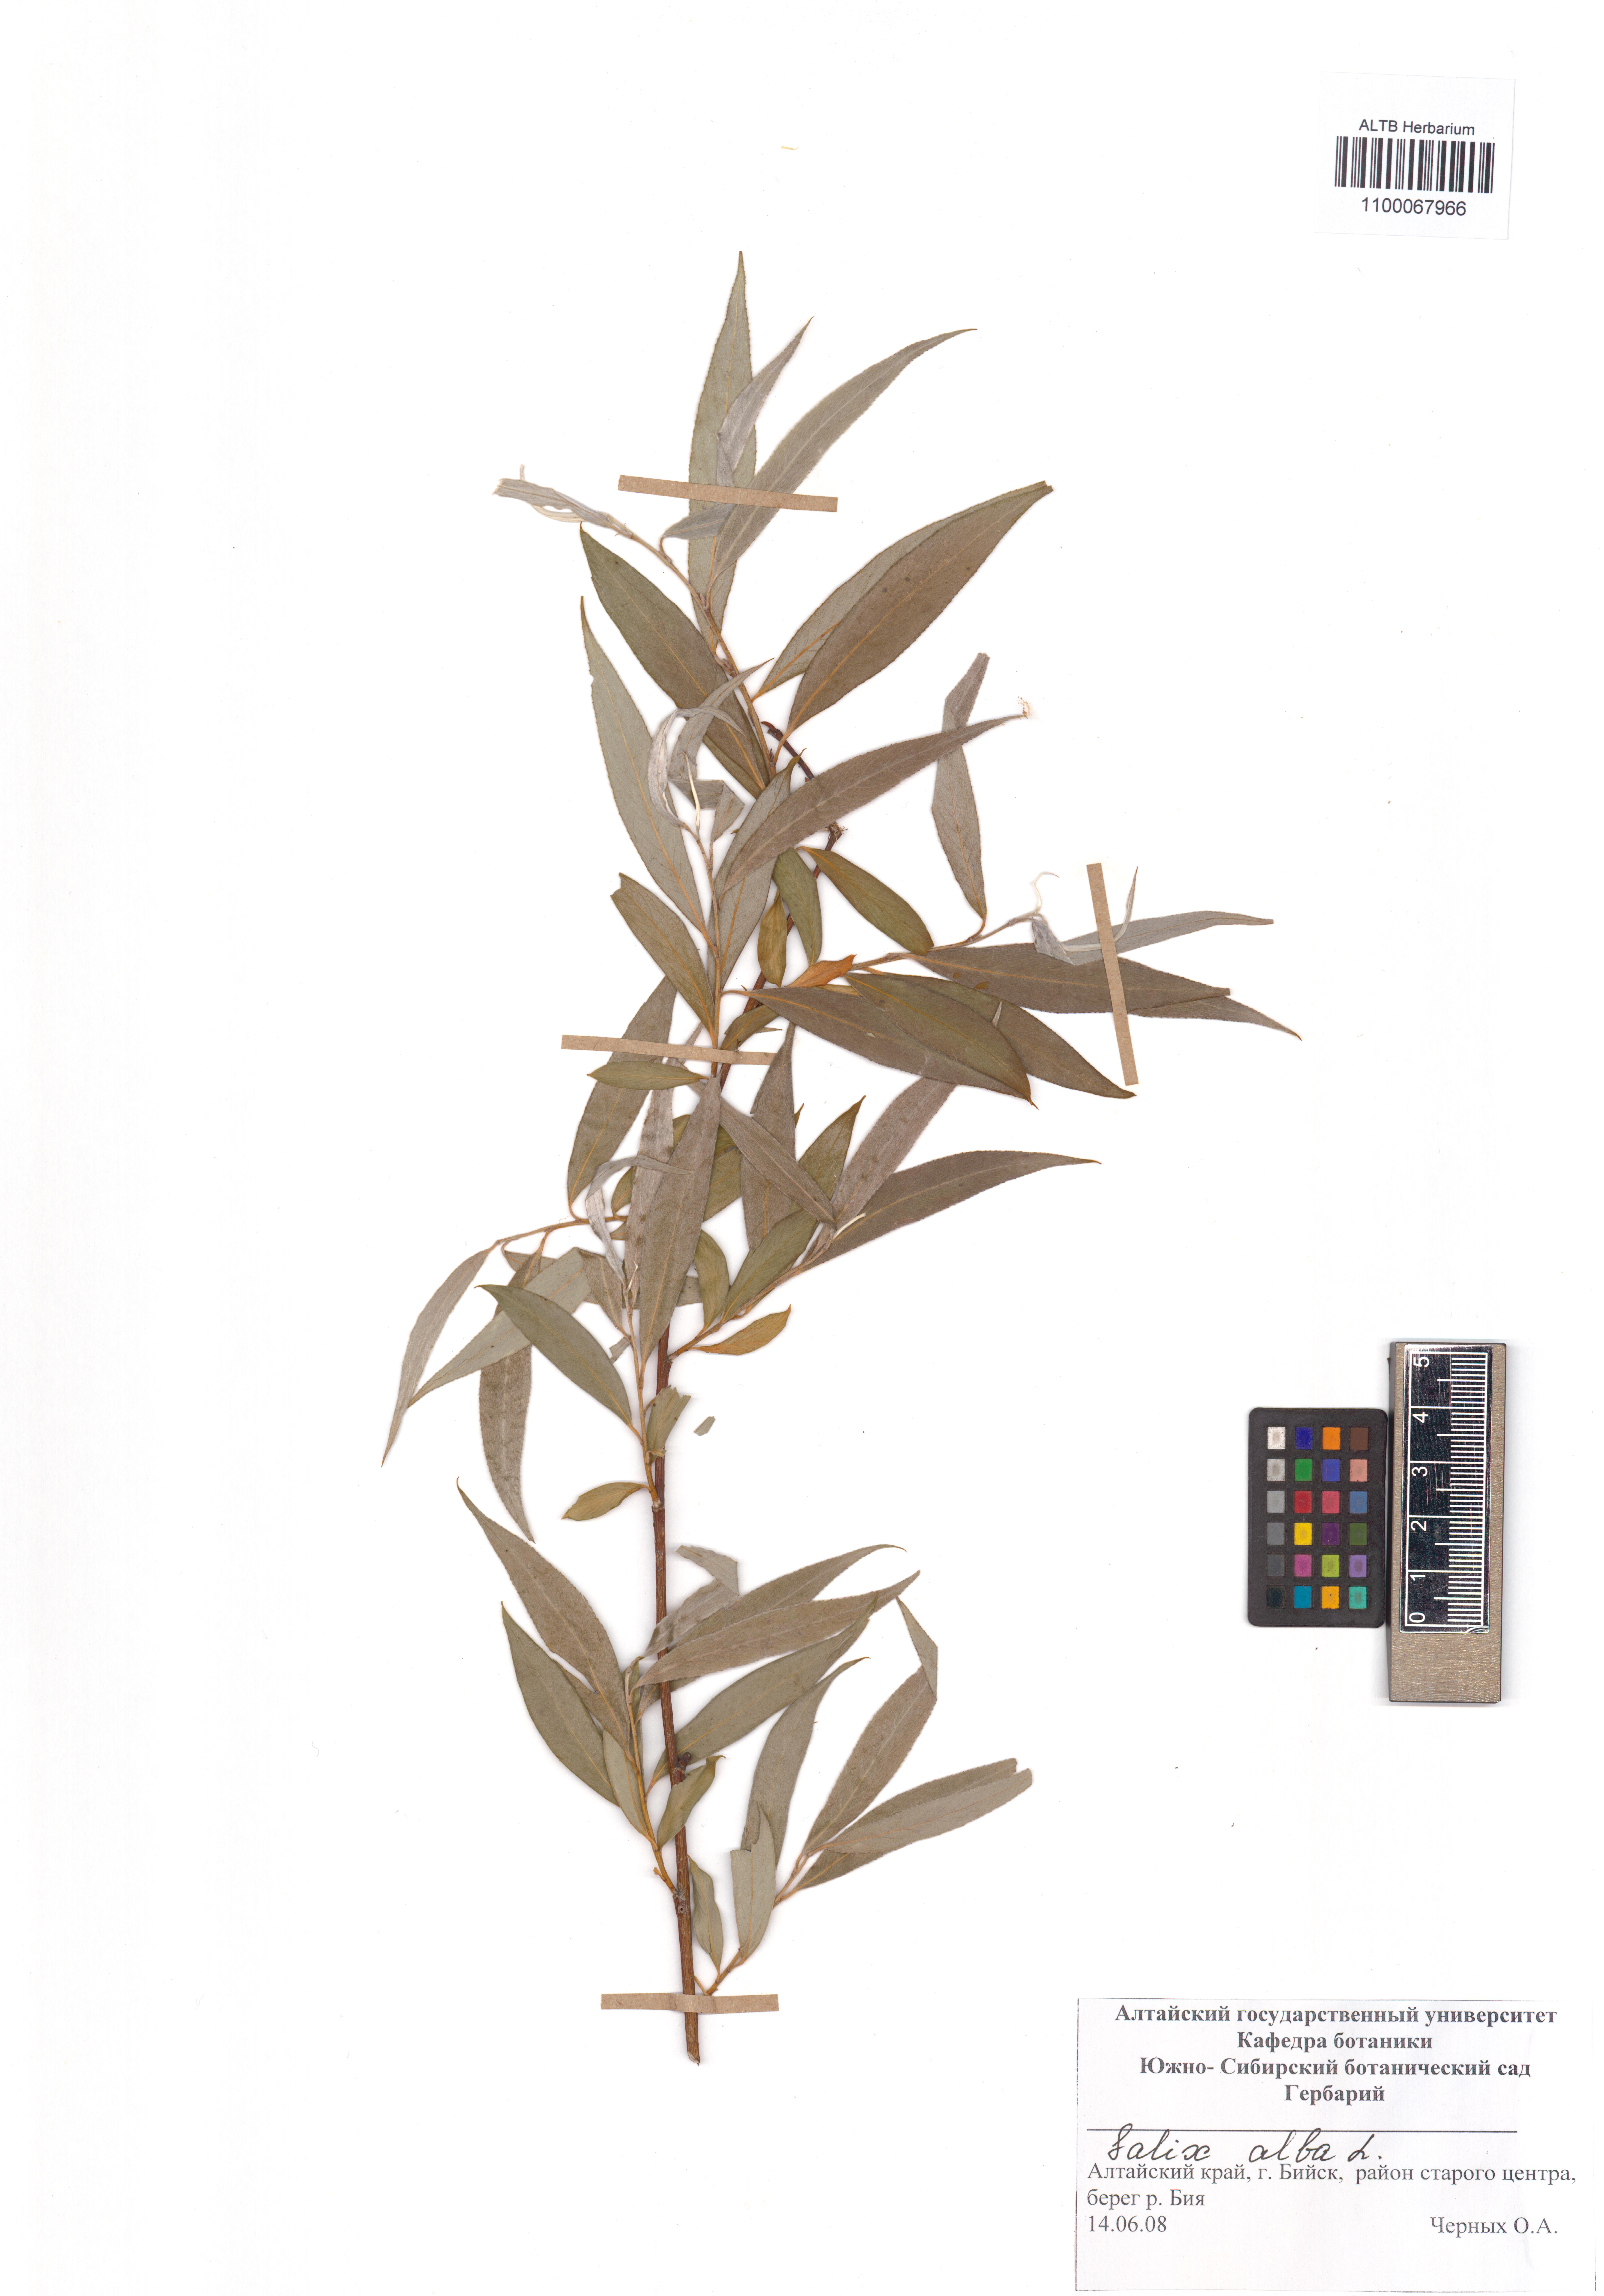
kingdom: Plantae
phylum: Tracheophyta
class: Magnoliopsida
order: Malpighiales
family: Salicaceae
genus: Salix
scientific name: Salix alba
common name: White willow
